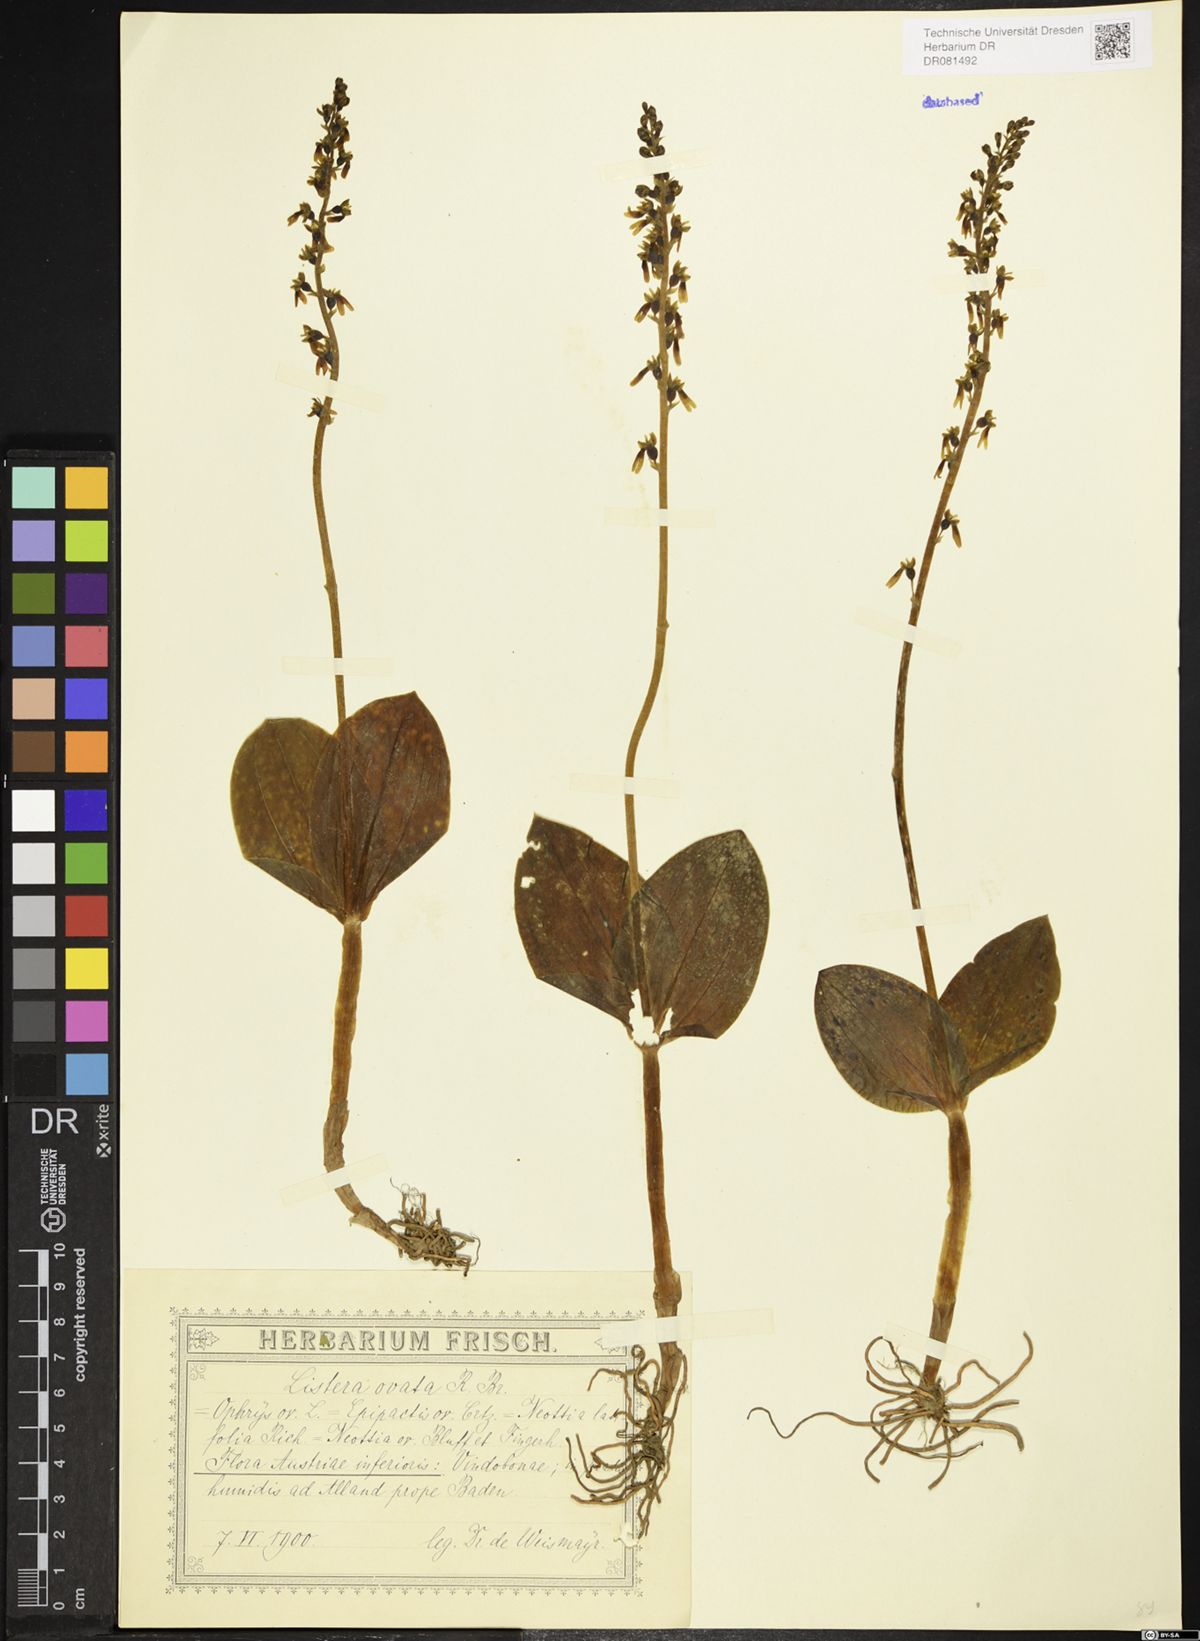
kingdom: Plantae
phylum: Tracheophyta
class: Liliopsida
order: Asparagales
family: Orchidaceae
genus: Neottia
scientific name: Neottia ovata
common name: Common twayblade
